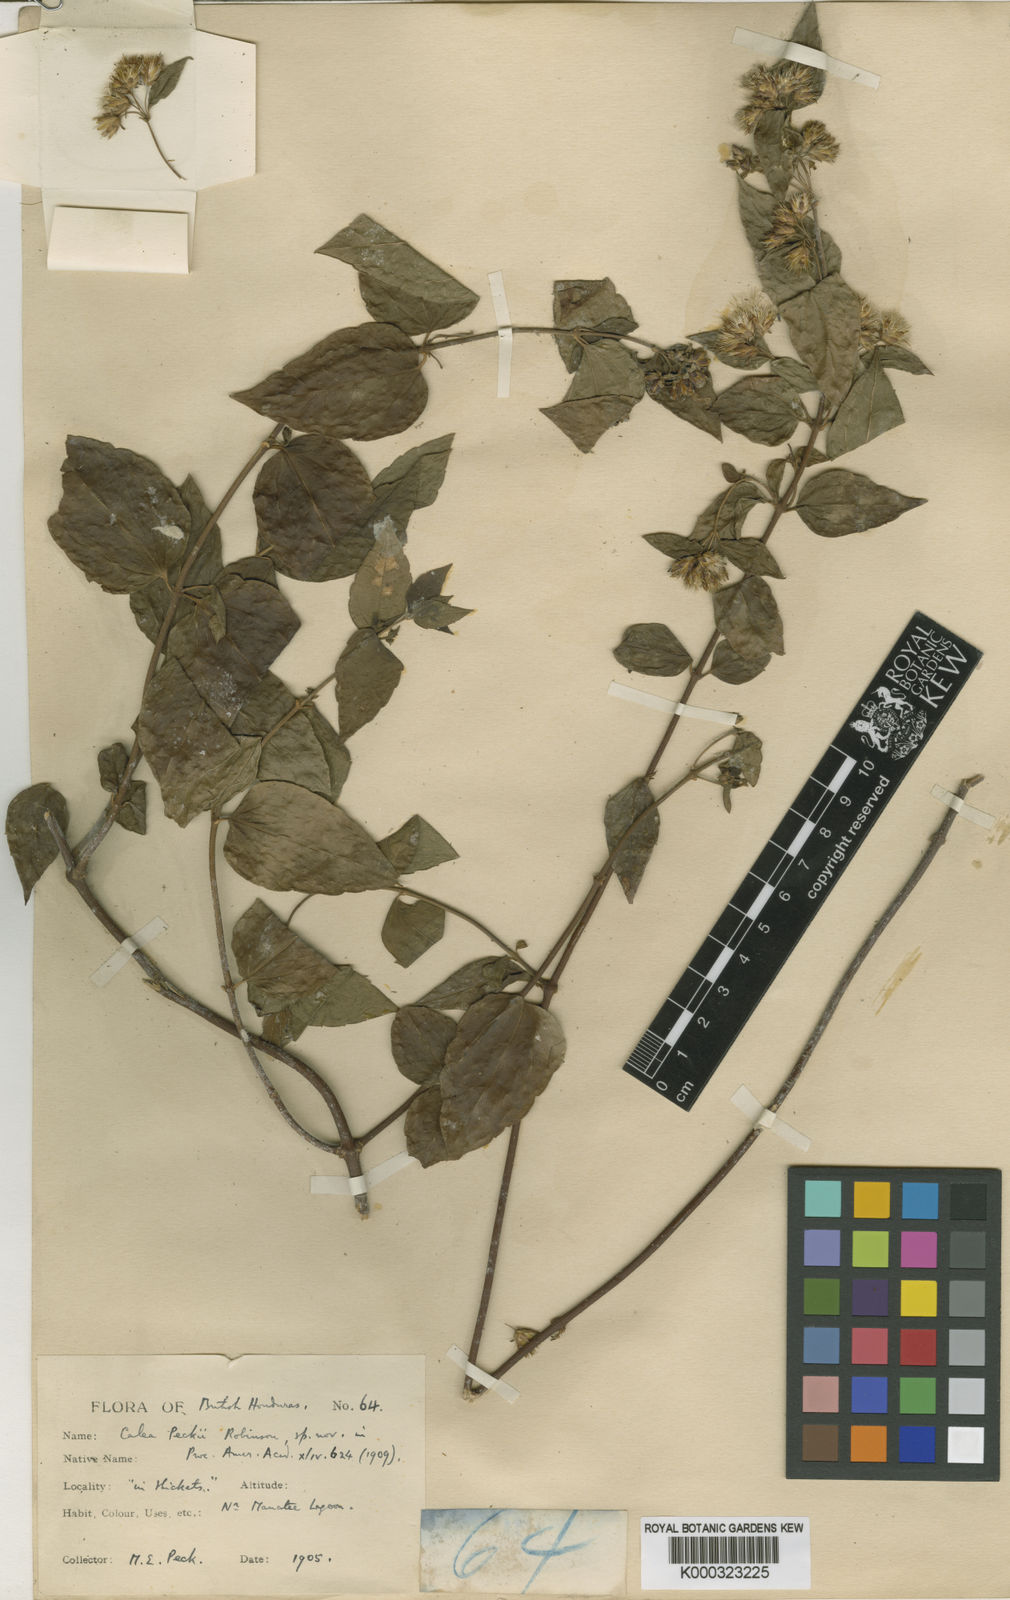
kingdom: Plantae
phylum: Tracheophyta
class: Magnoliopsida
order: Asterales
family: Asteraceae
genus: Calea
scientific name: Calea trichotoma
